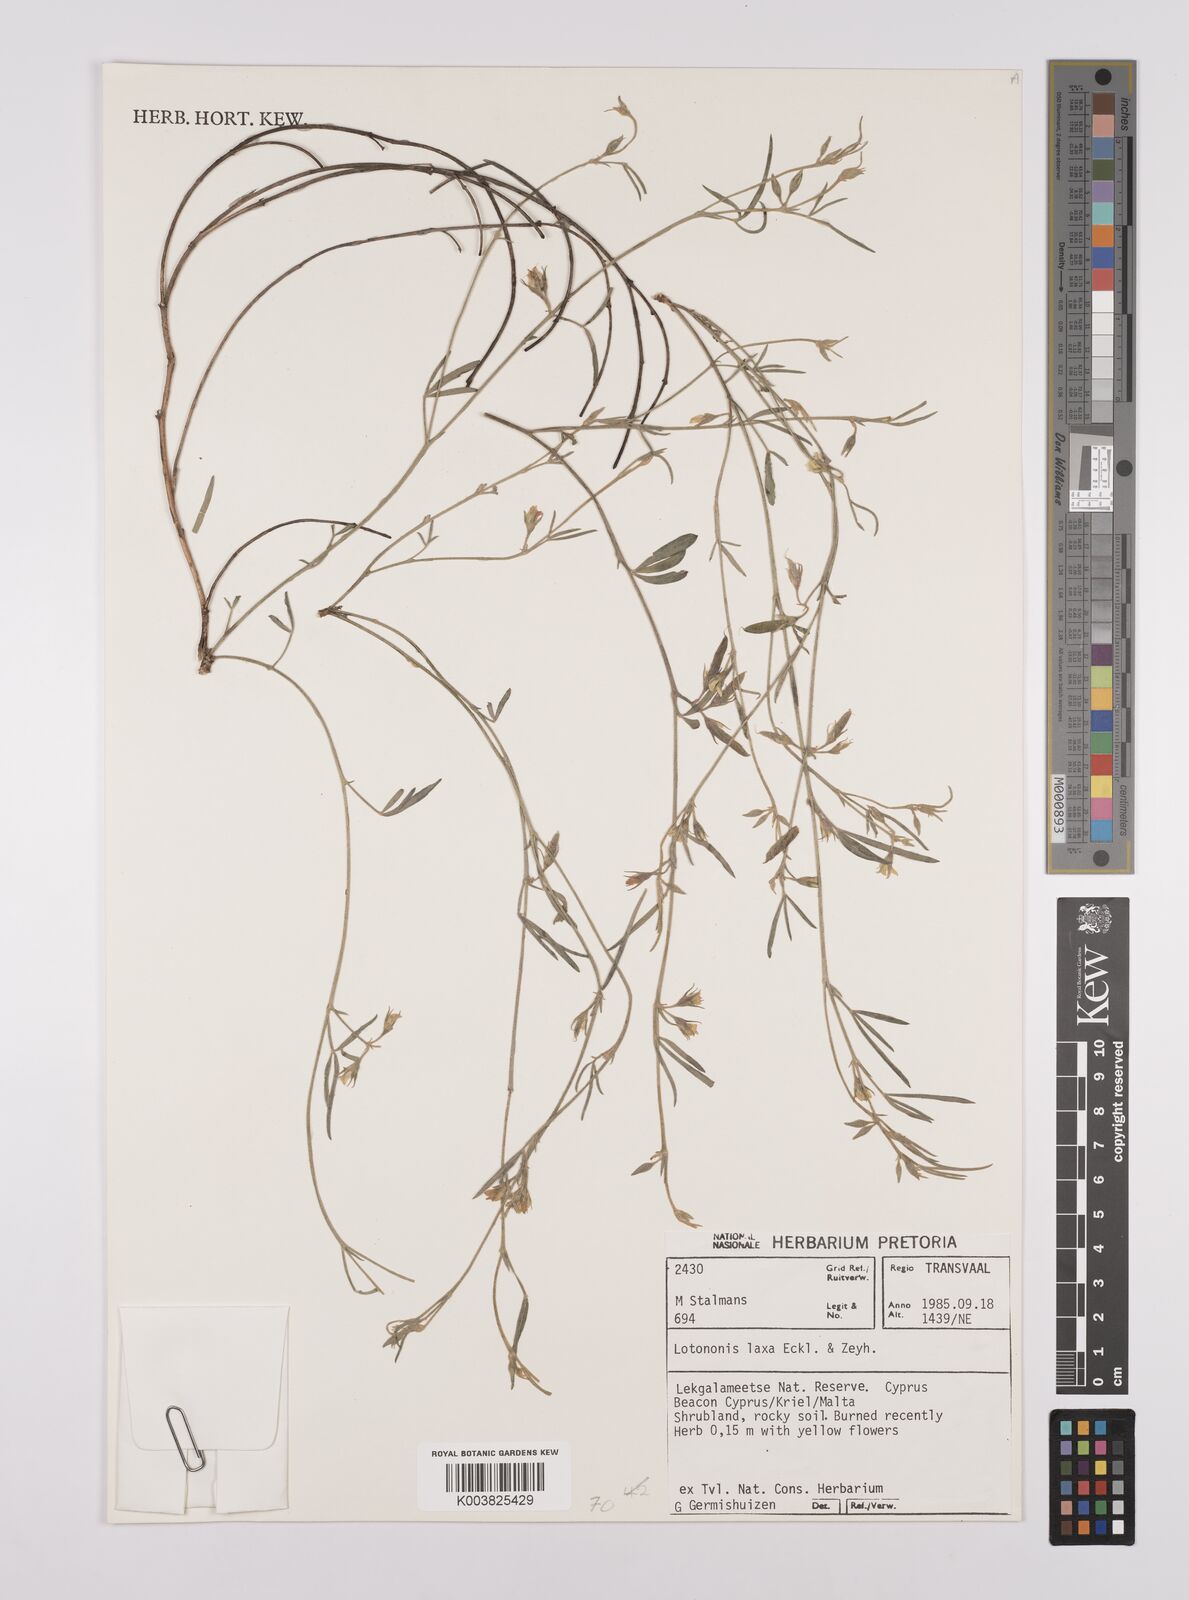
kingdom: Plantae
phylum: Tracheophyta
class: Magnoliopsida
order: Fabales
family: Fabaceae
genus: Lotononis
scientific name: Lotononis laxa
